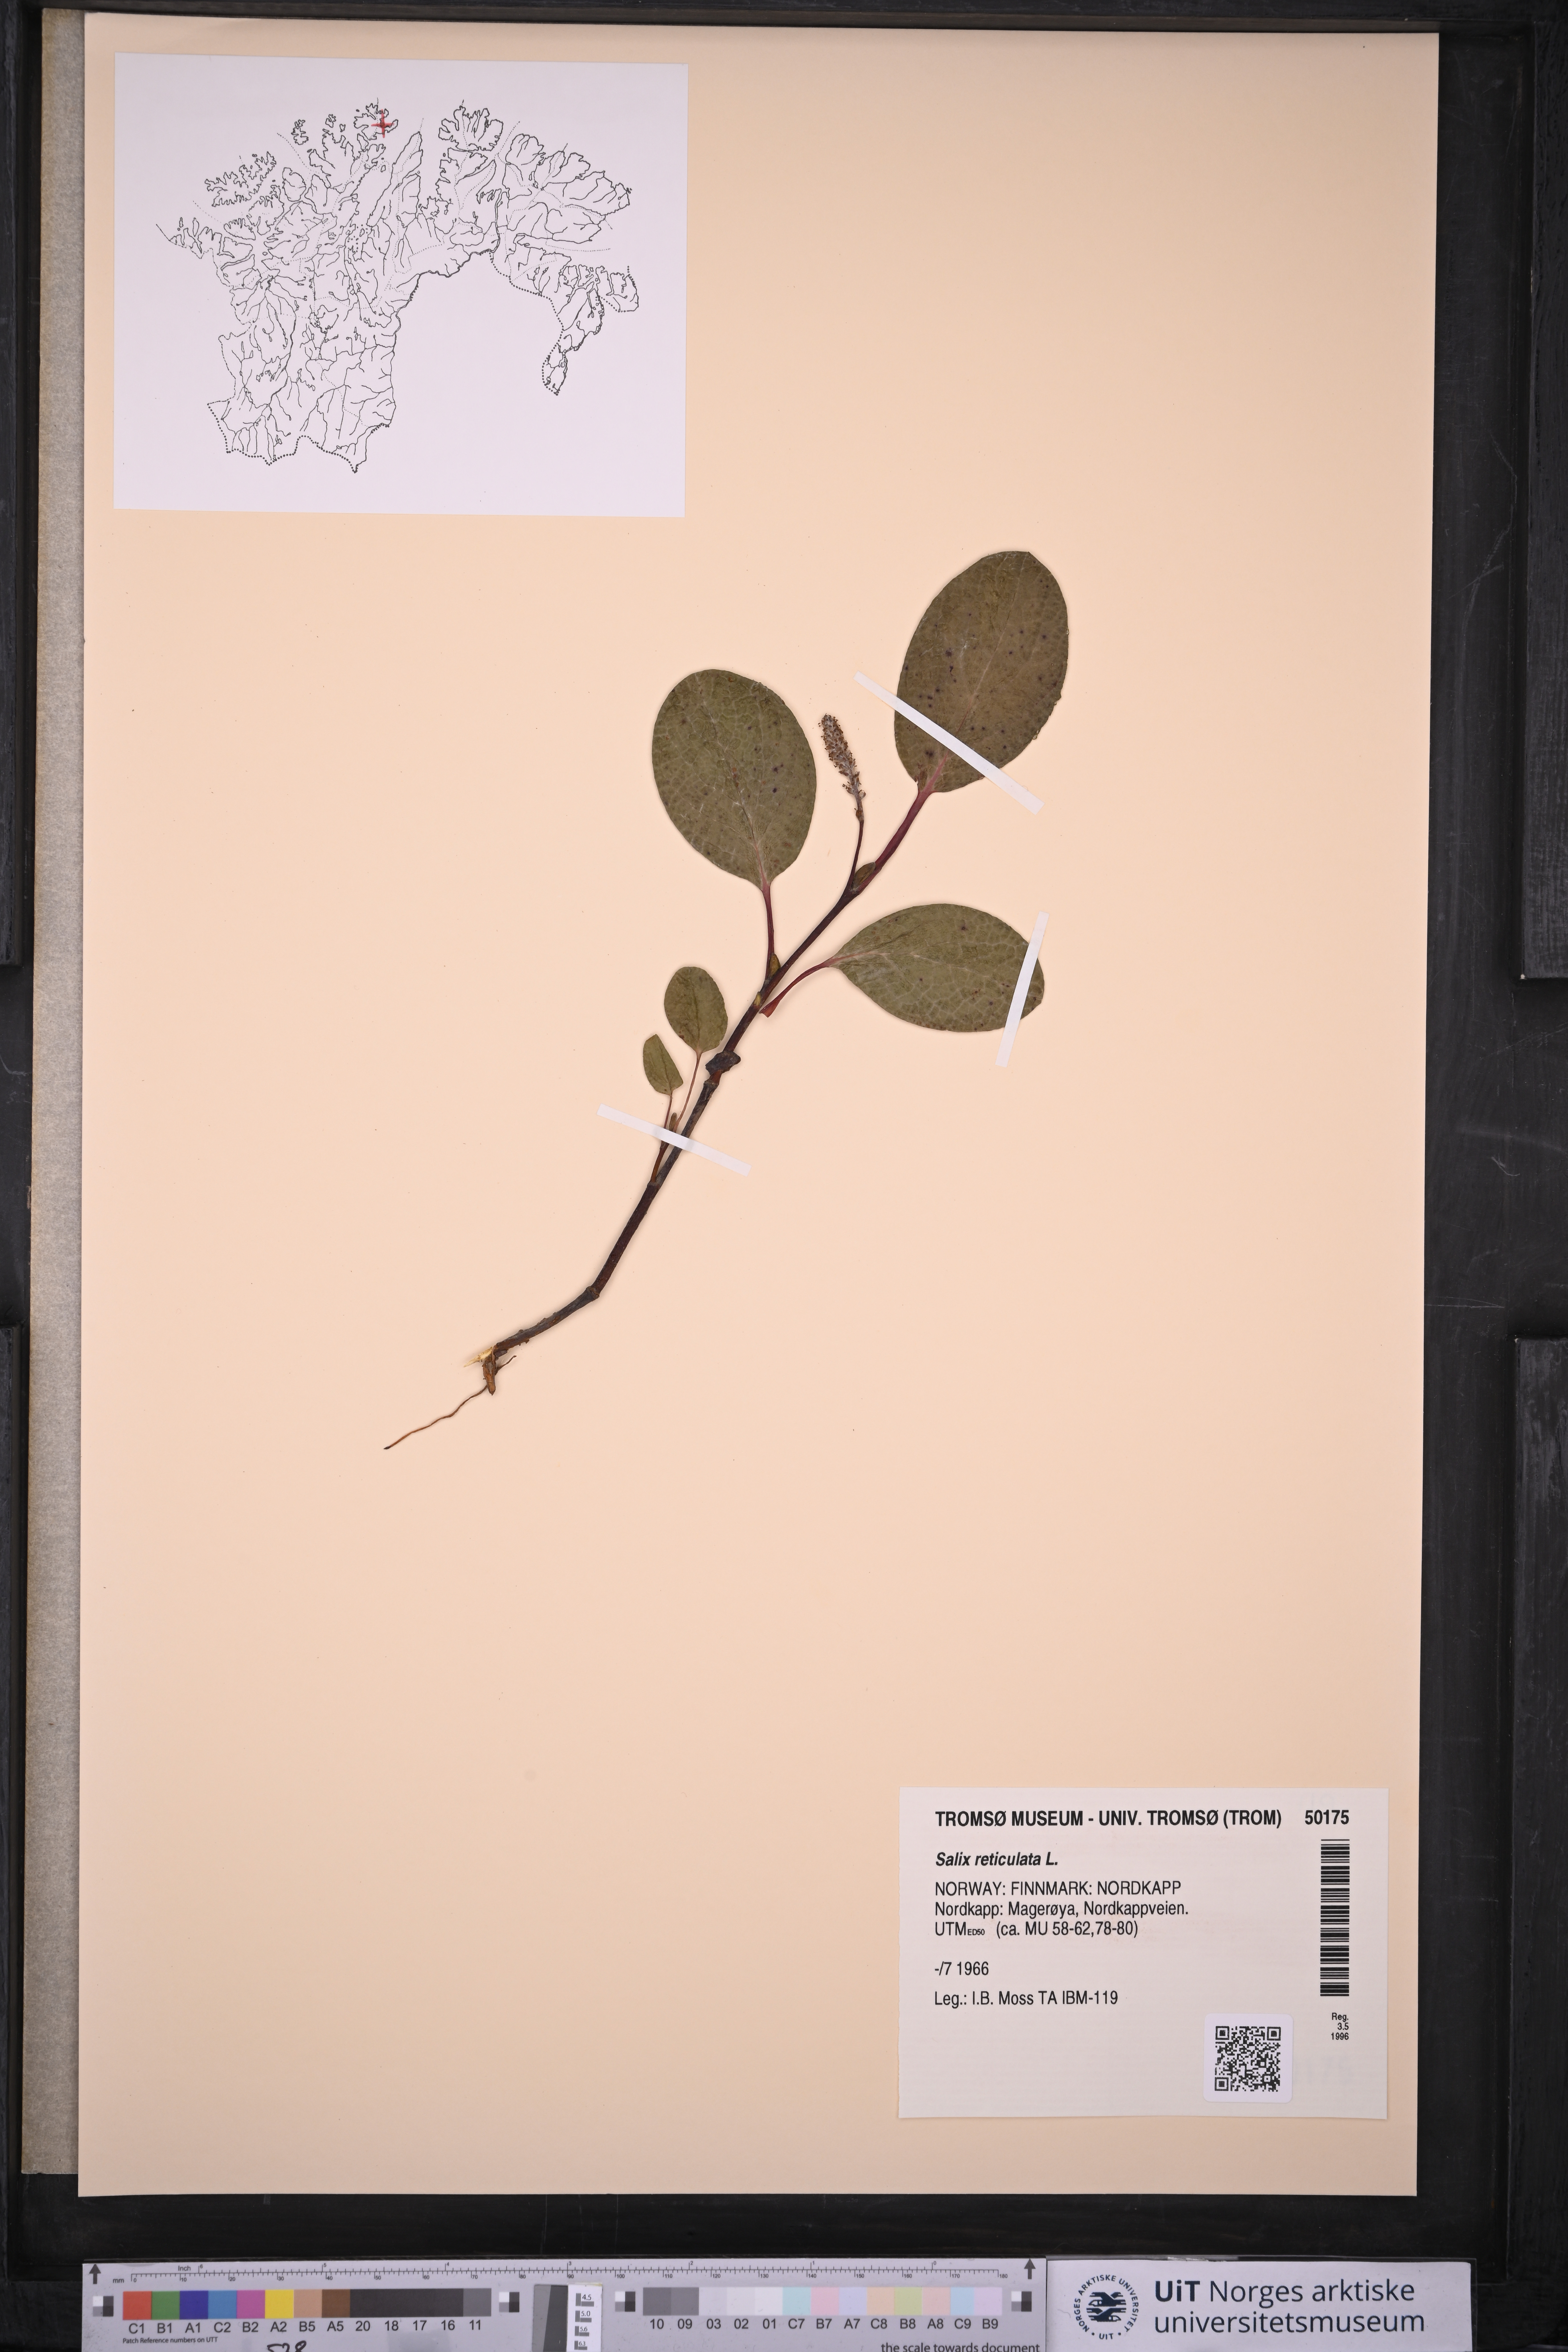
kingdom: Plantae
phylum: Tracheophyta
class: Magnoliopsida
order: Malpighiales
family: Salicaceae
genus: Salix
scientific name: Salix reticulata
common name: Net-leaved willow
